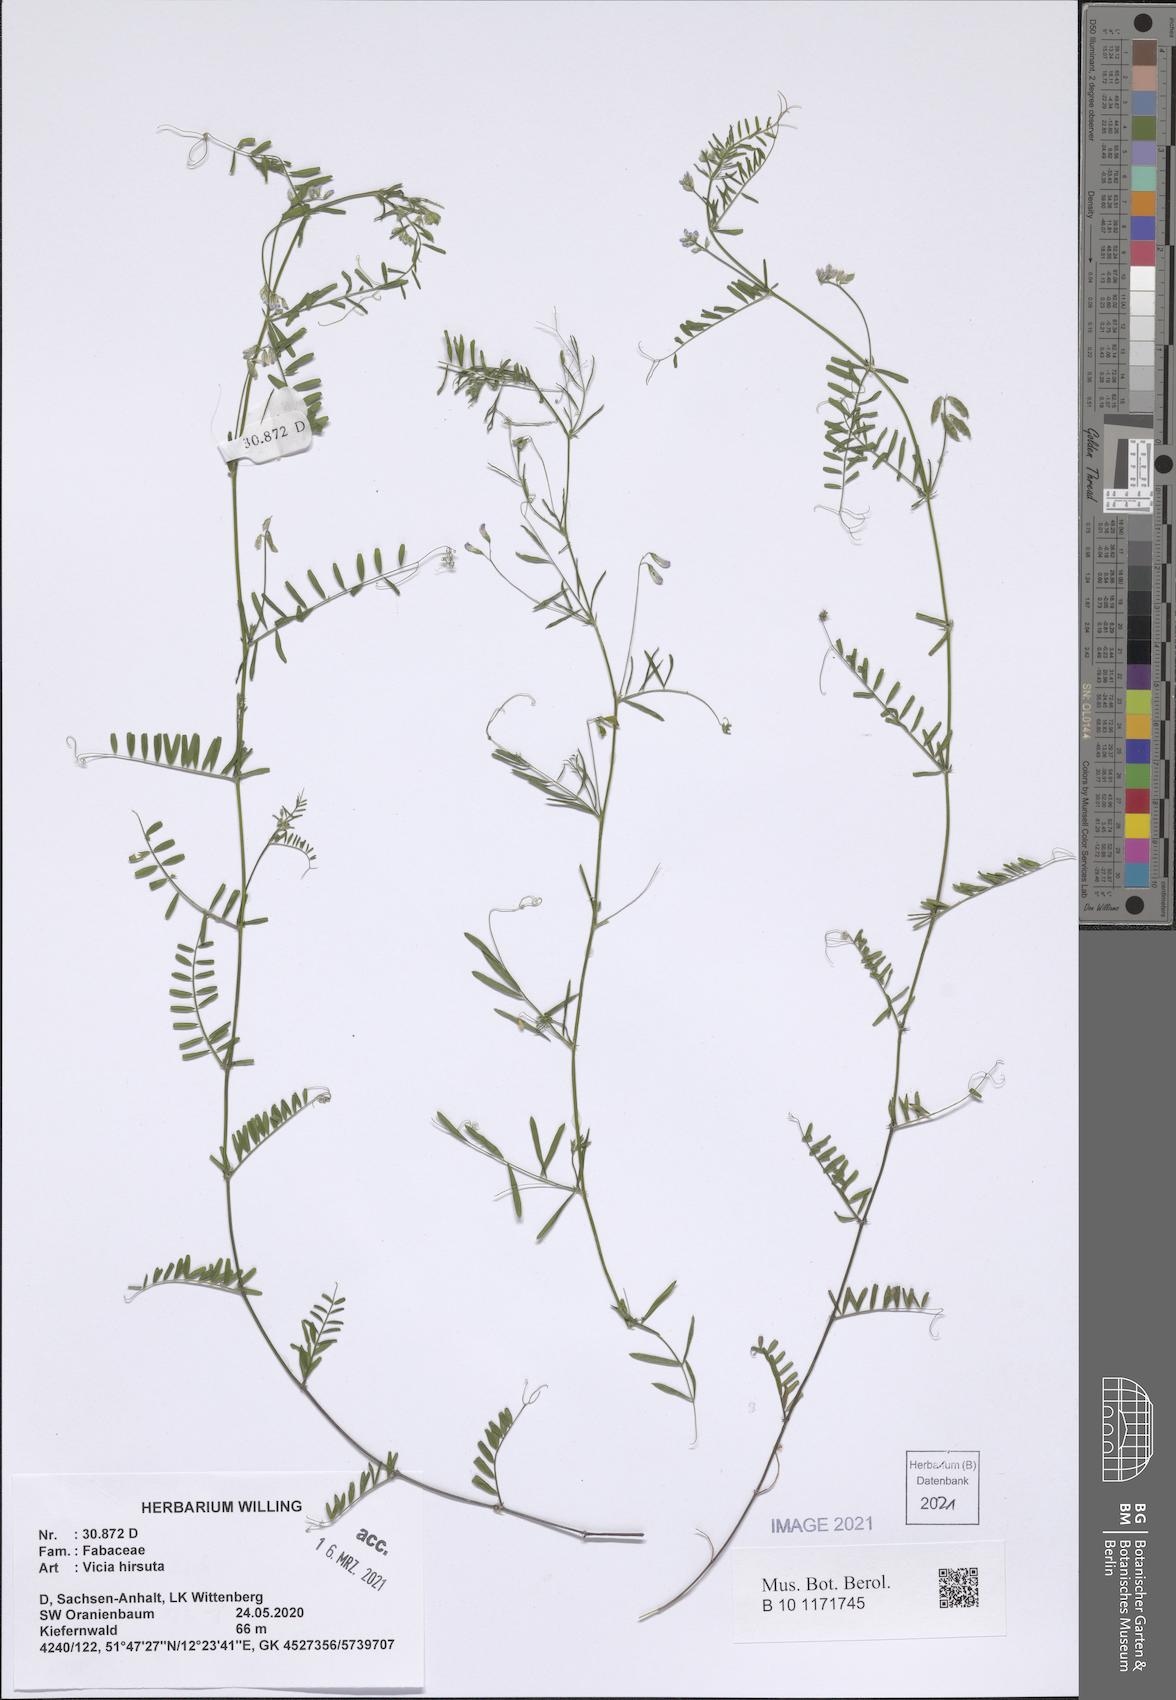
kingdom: Plantae
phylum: Tracheophyta
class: Magnoliopsida
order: Fabales
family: Fabaceae
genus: Vicia
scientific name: Vicia hirsuta
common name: Tiny vetch
